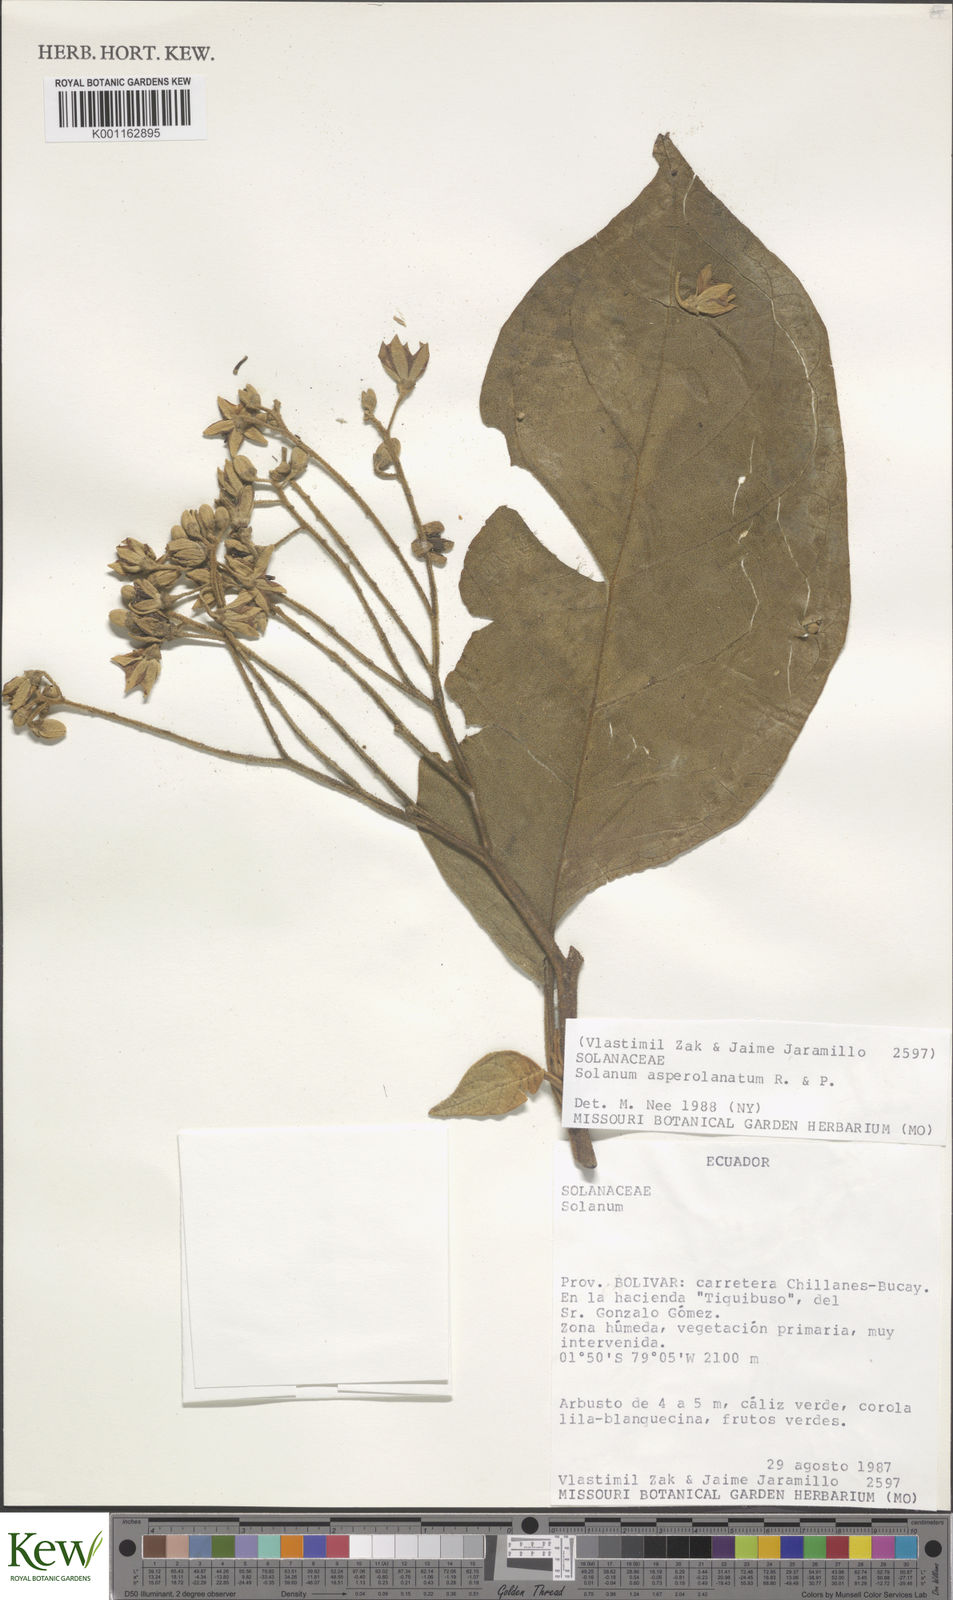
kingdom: Plantae
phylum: Tracheophyta
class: Magnoliopsida
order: Solanales
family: Solanaceae
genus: Solanum
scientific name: Solanum asperolanatum
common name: Devil's-fig
